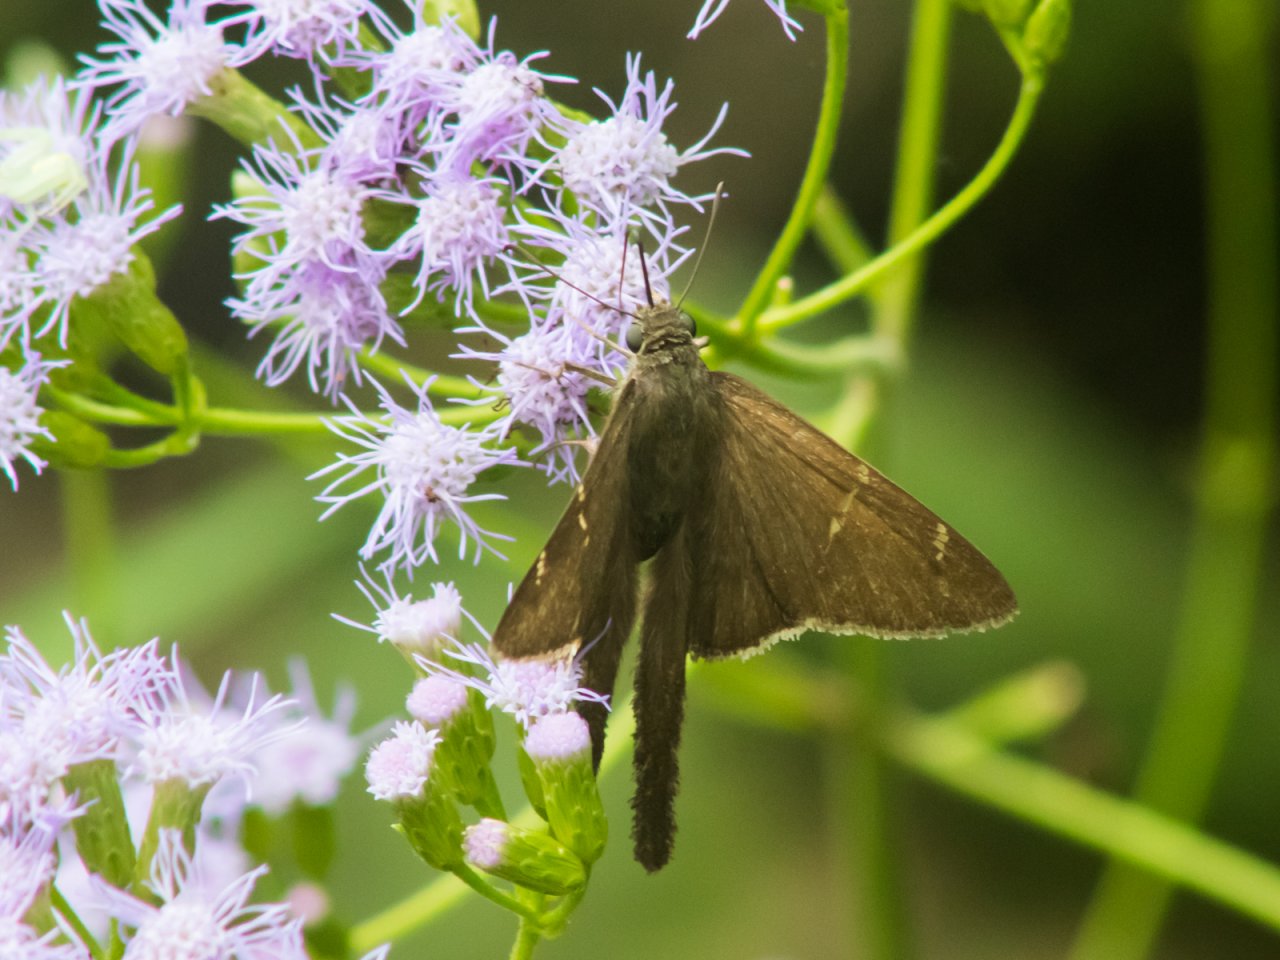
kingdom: Animalia
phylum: Arthropoda
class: Insecta
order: Lepidoptera
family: Hesperiidae
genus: Urbanus
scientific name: Urbanus procne
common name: Brown Longtail
